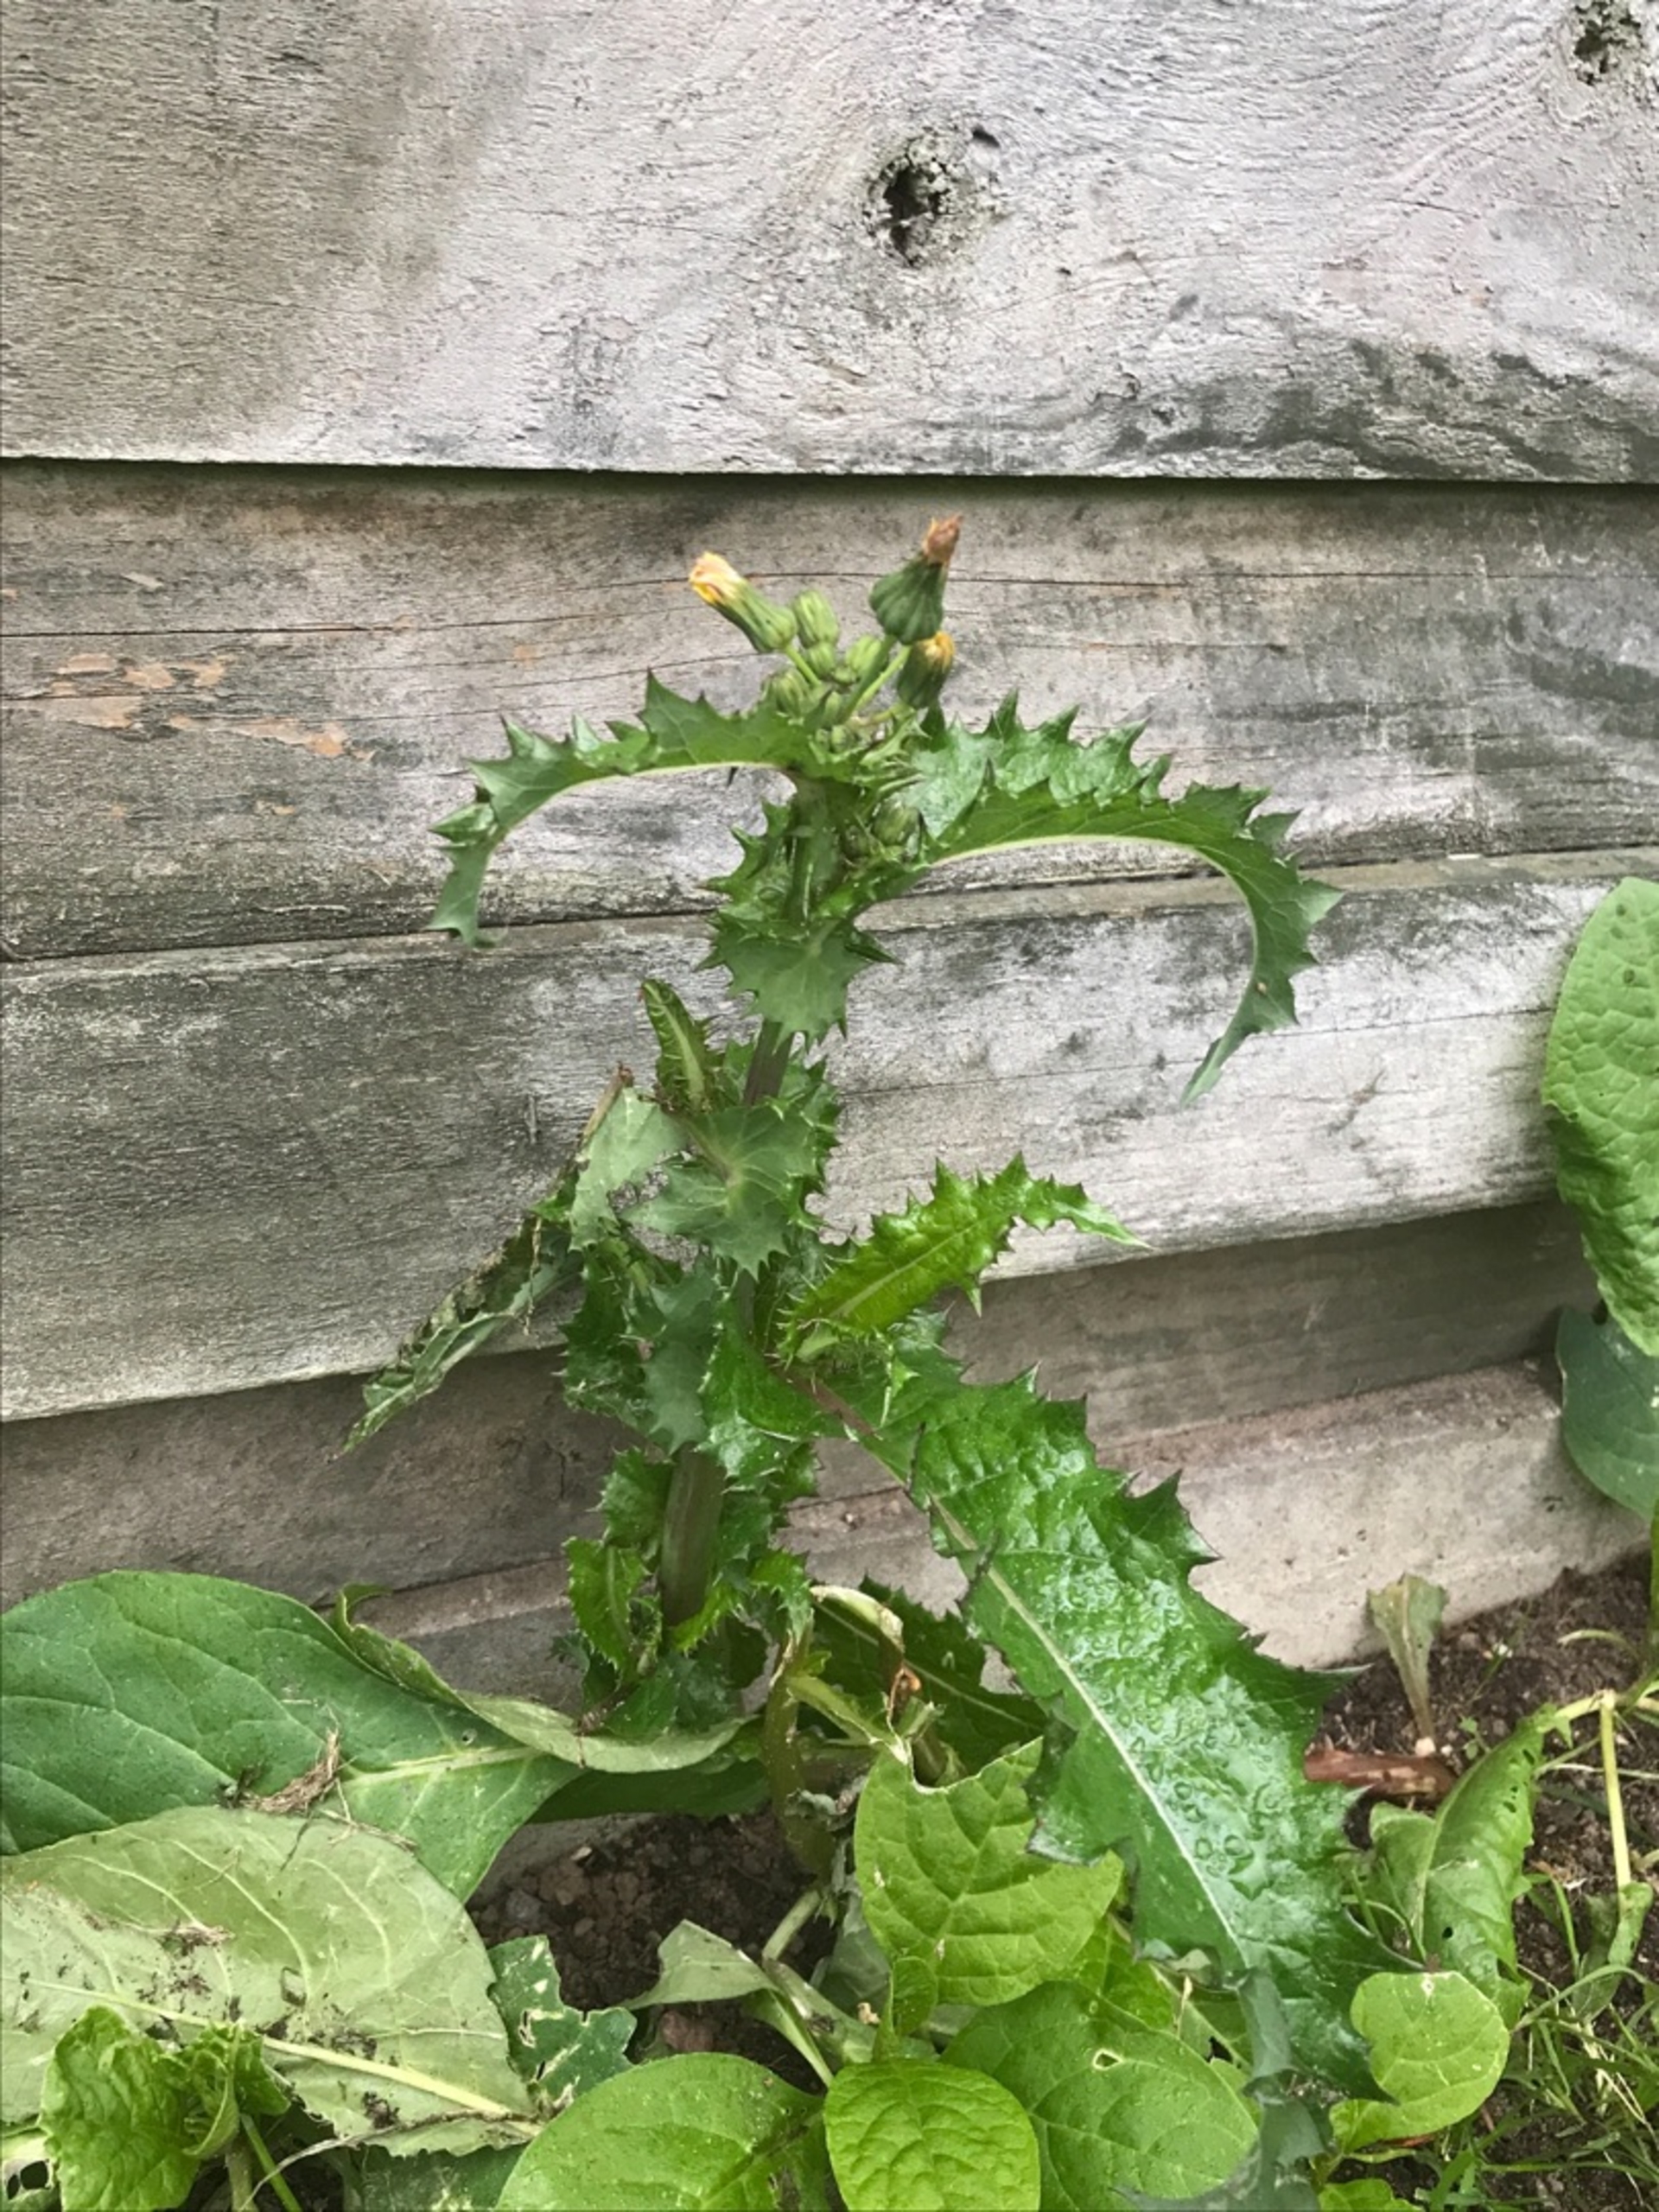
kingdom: Plantae
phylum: Tracheophyta
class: Magnoliopsida
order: Asterales
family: Asteraceae
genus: Sonchus
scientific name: Sonchus asper
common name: Ru svinemælk
